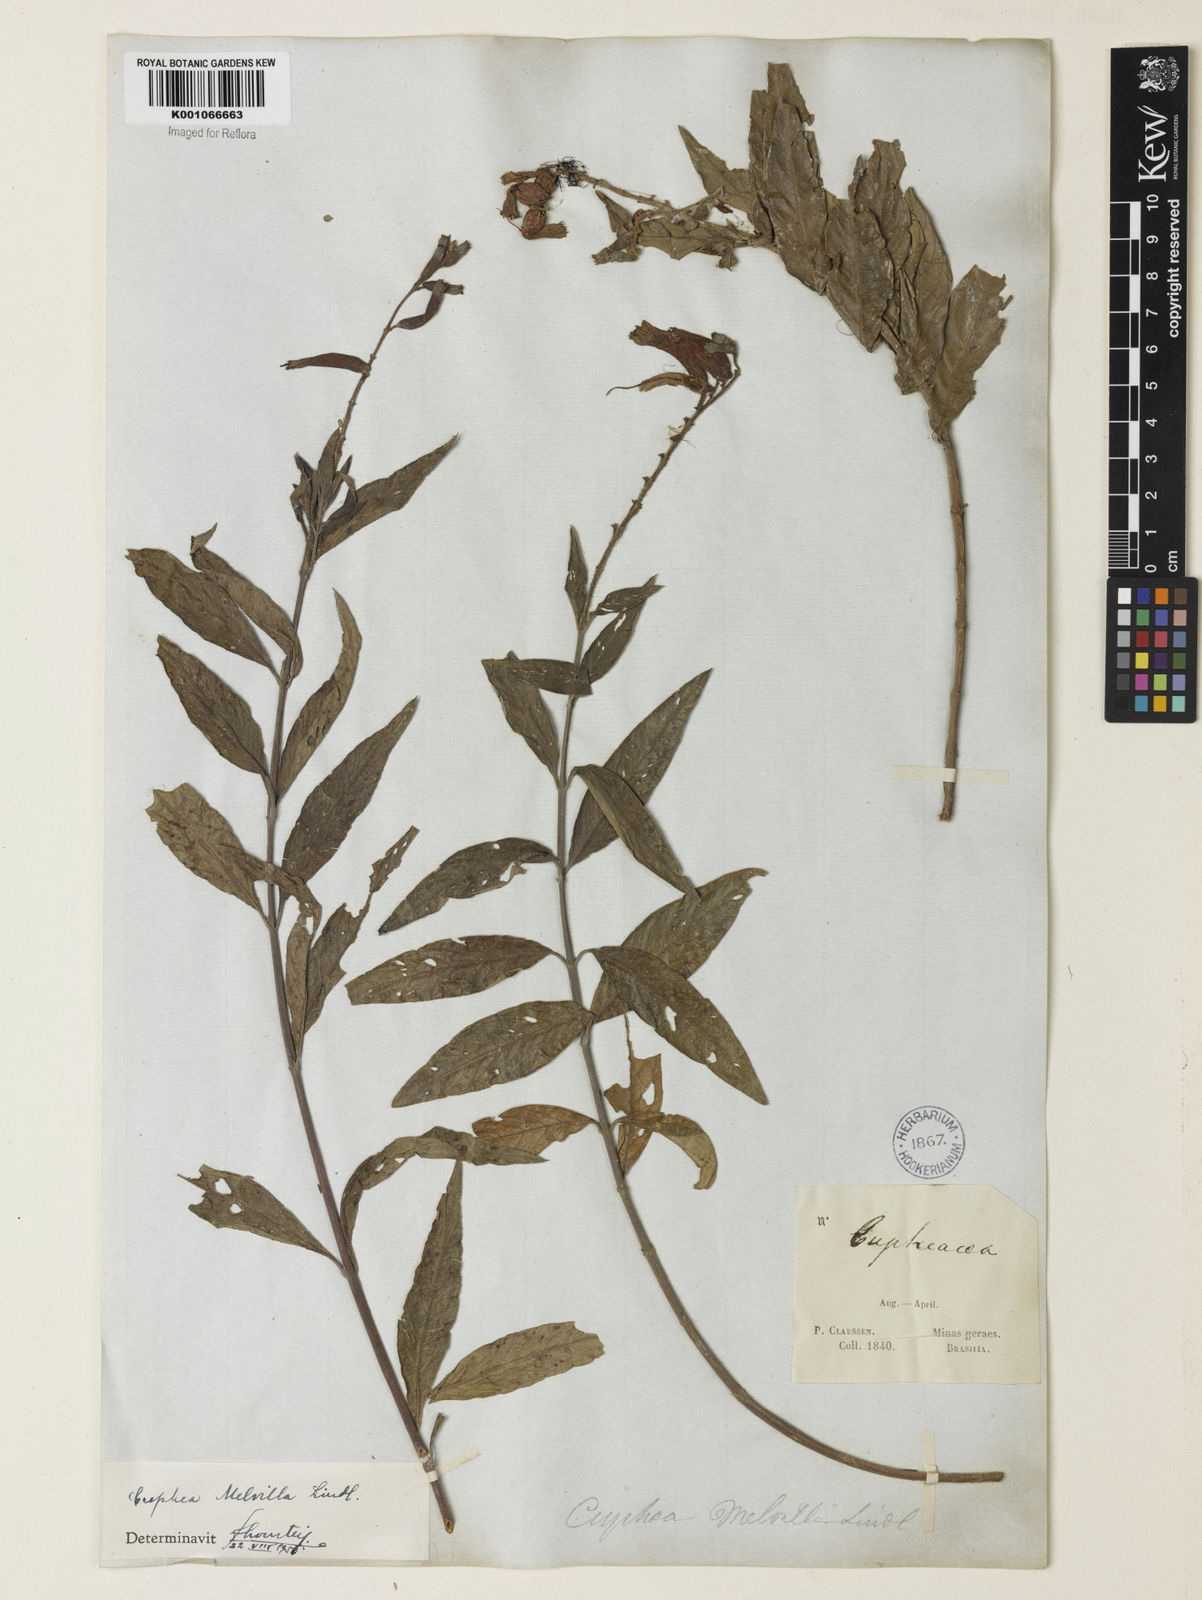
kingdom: Plantae
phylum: Tracheophyta
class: Magnoliopsida
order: Myrtales
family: Lythraceae
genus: Cuphea
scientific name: Cuphea melvilla
